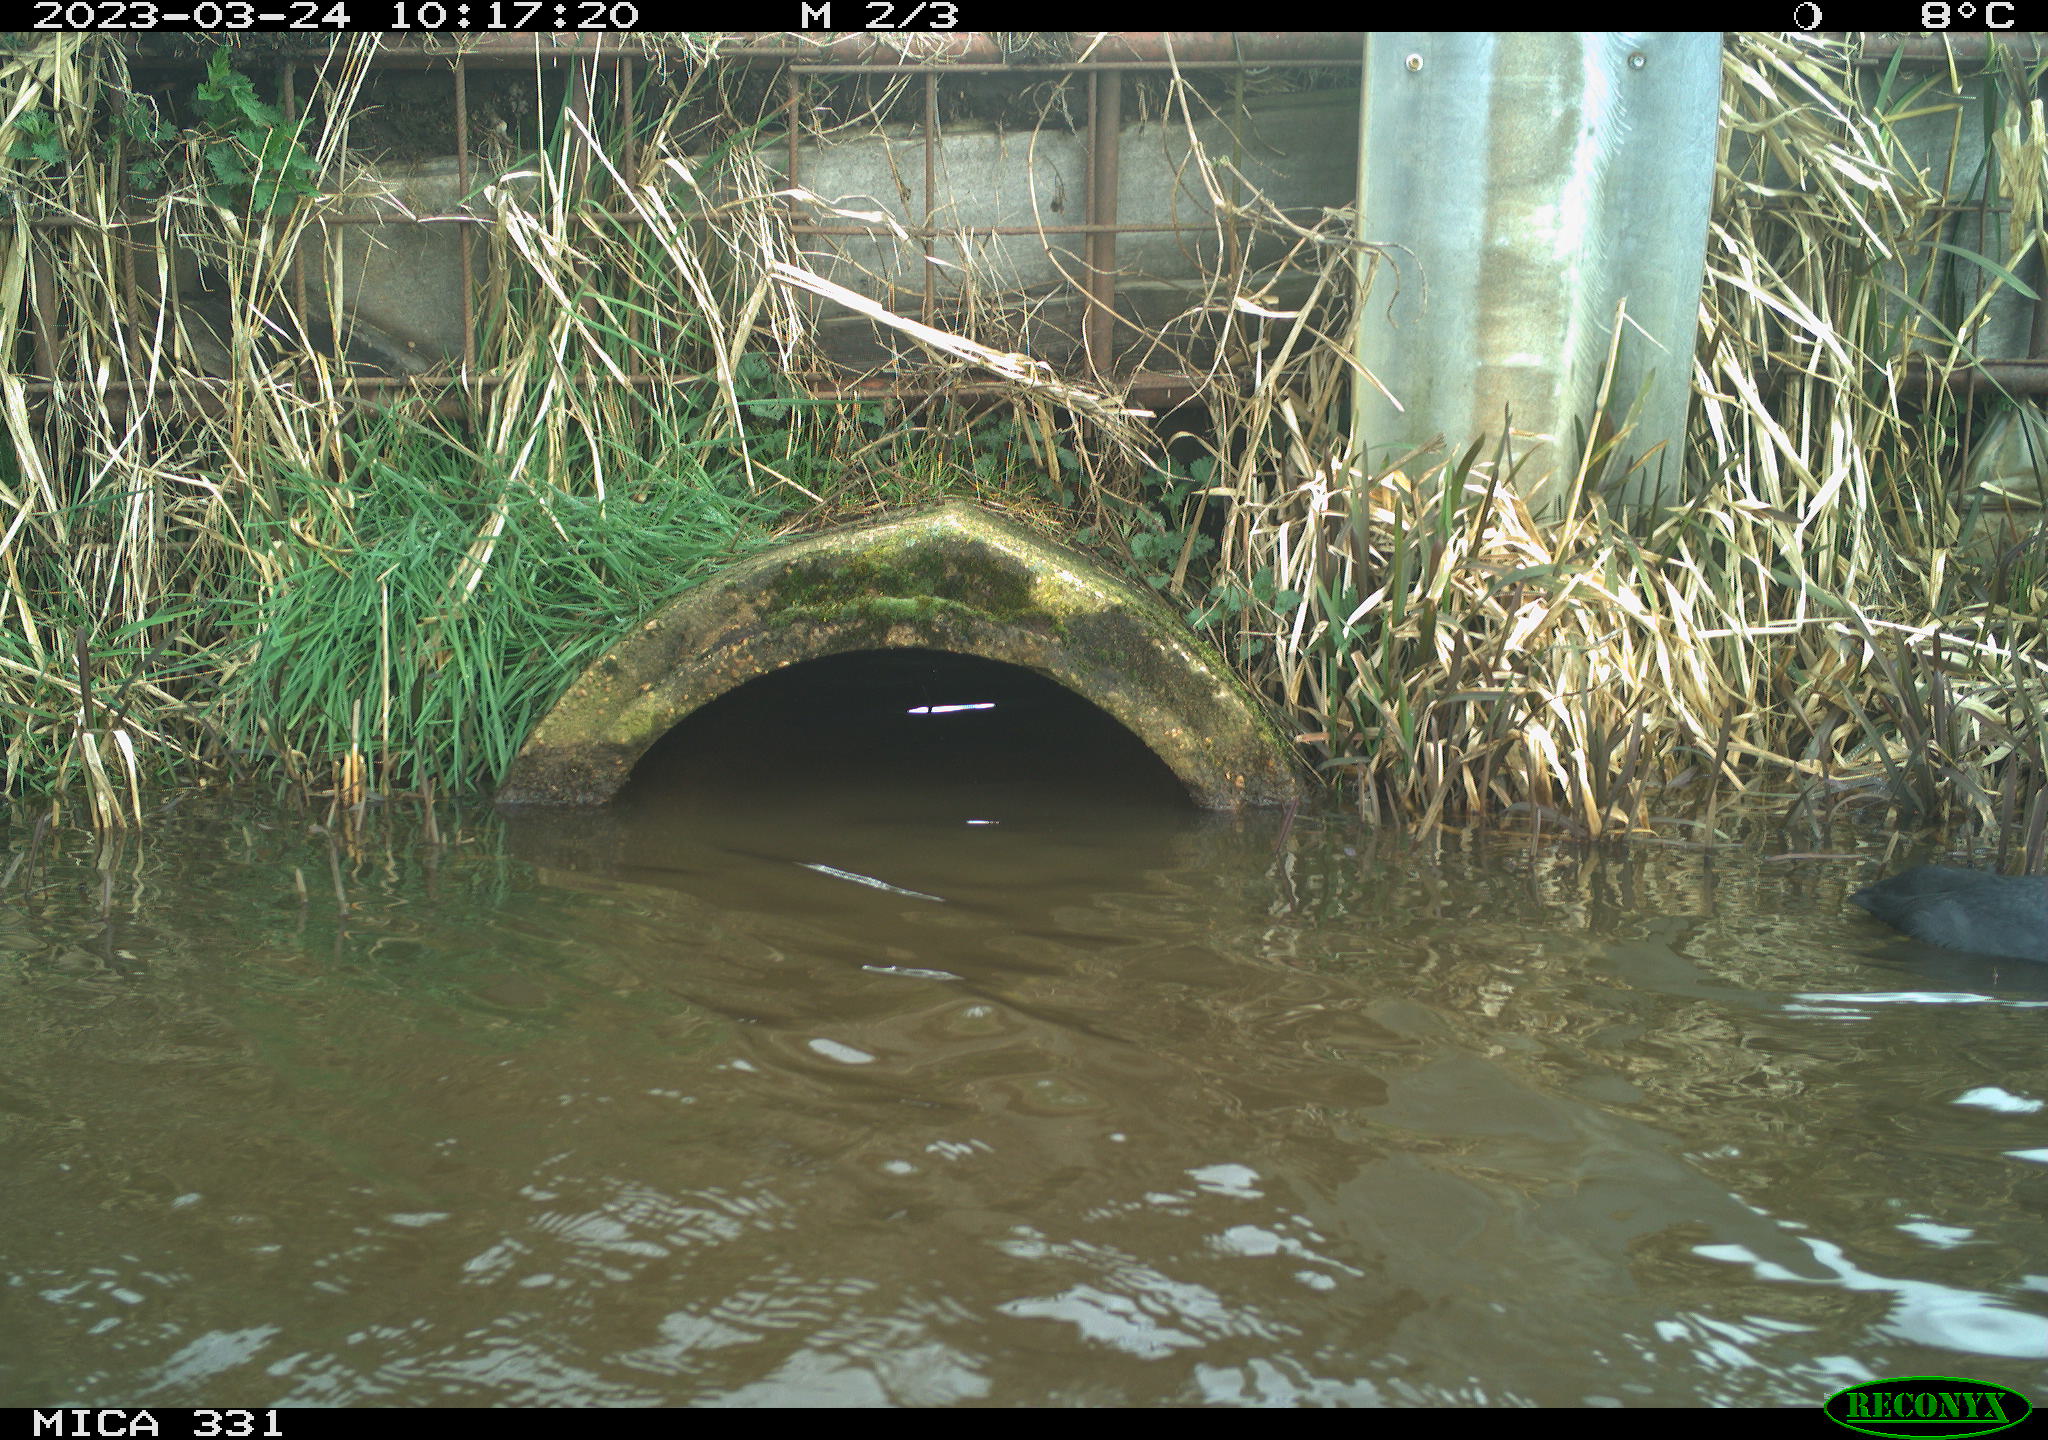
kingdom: Animalia
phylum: Chordata
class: Aves
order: Gruiformes
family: Rallidae
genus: Fulica
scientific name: Fulica atra
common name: Eurasian coot
